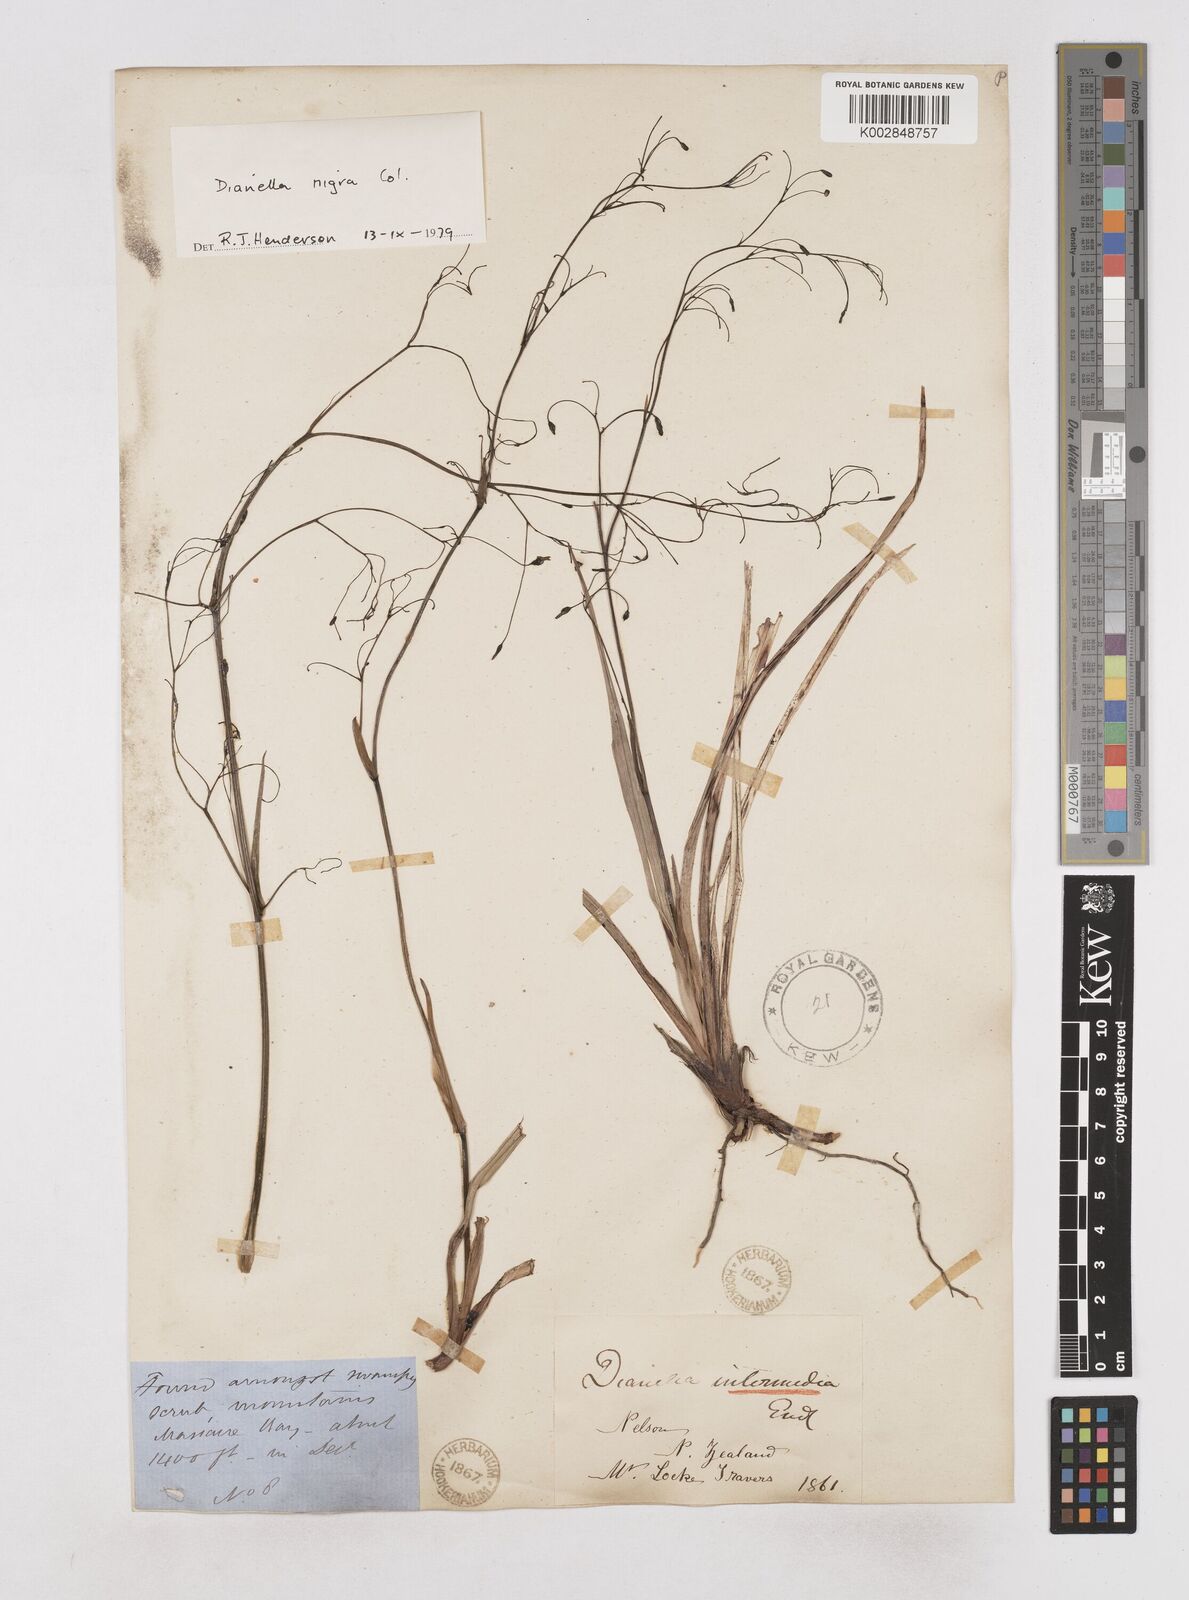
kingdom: Plantae
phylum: Tracheophyta
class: Liliopsida
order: Asparagales
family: Asphodelaceae
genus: Dianella
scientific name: Dianella nigra
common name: New zealand-blueberry
